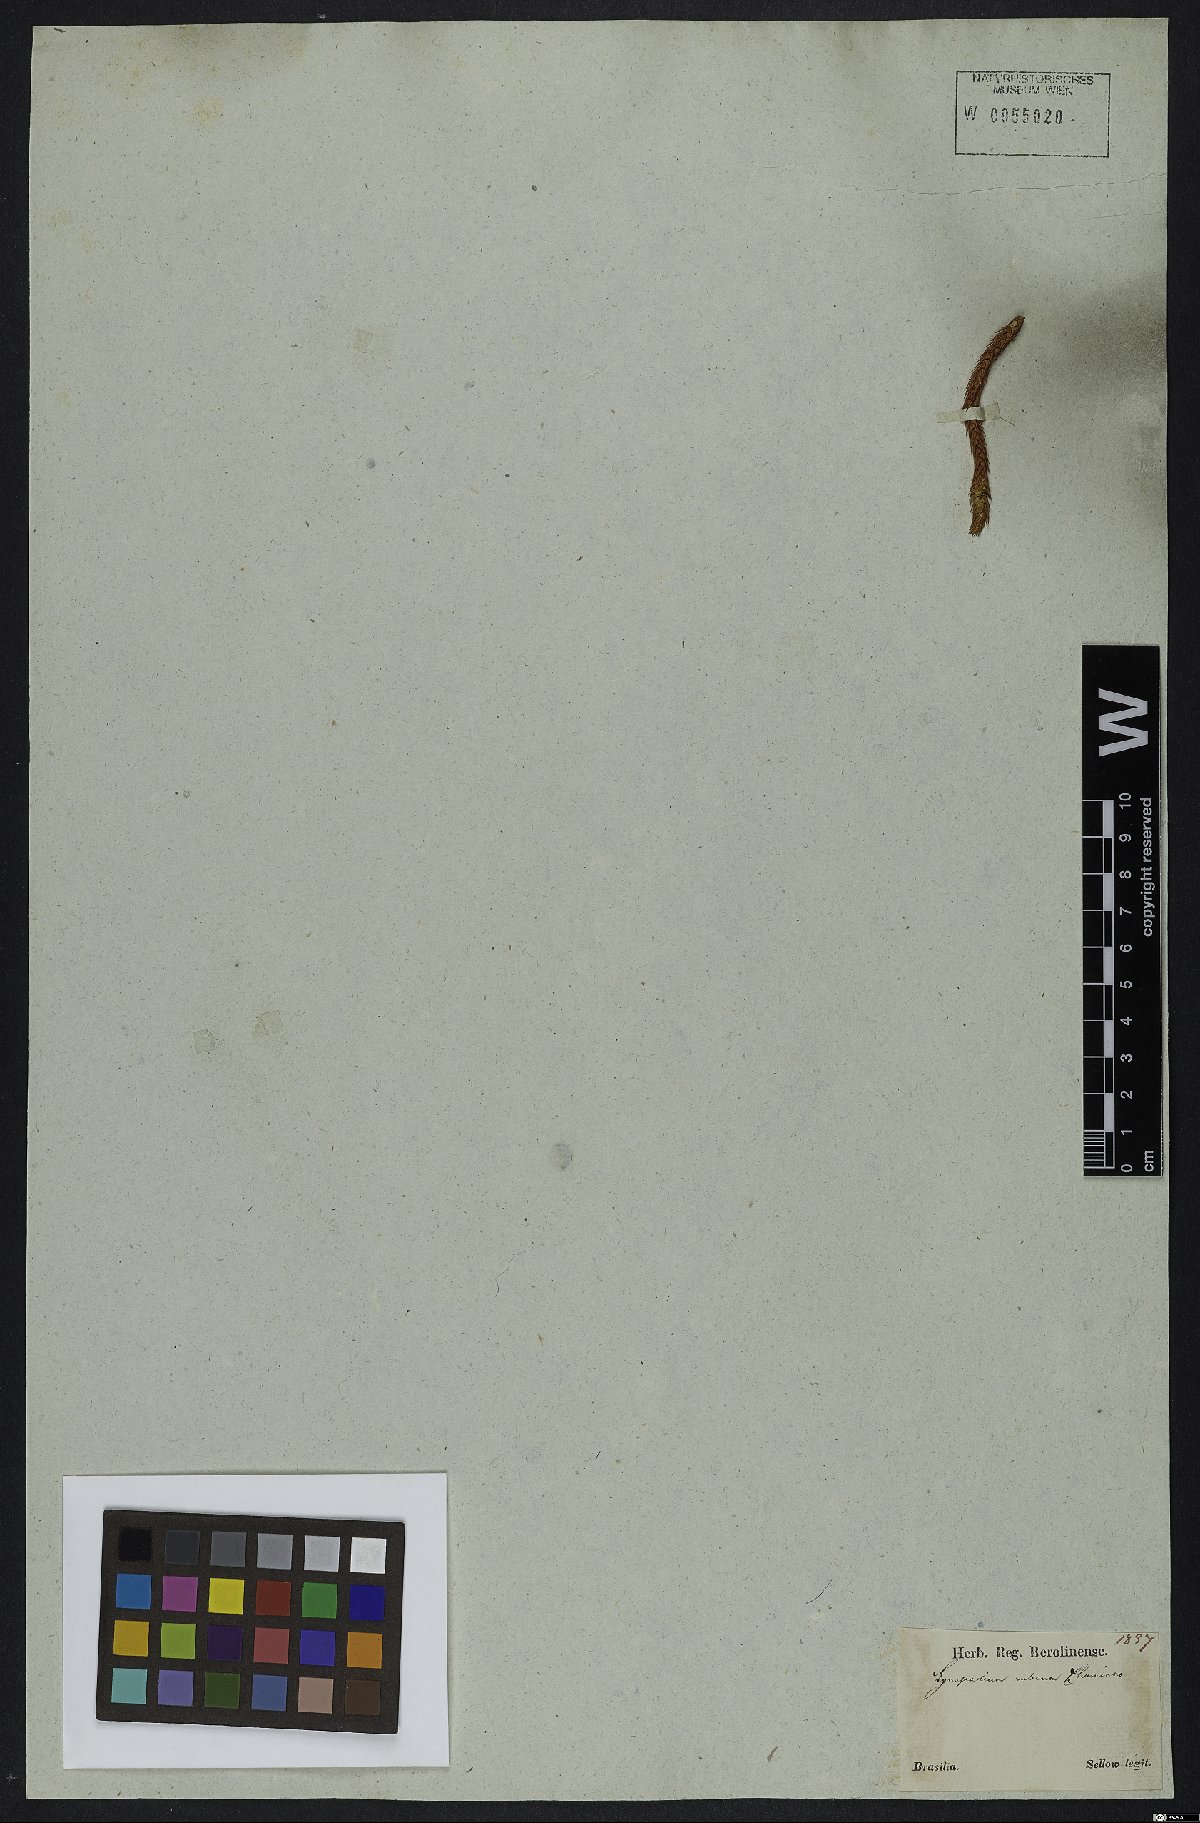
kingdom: Plantae
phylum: Tracheophyta
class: Lycopodiopsida
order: Lycopodiales
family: Lycopodiaceae
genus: Phlegmariurus
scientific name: Phlegmariurus ruber
